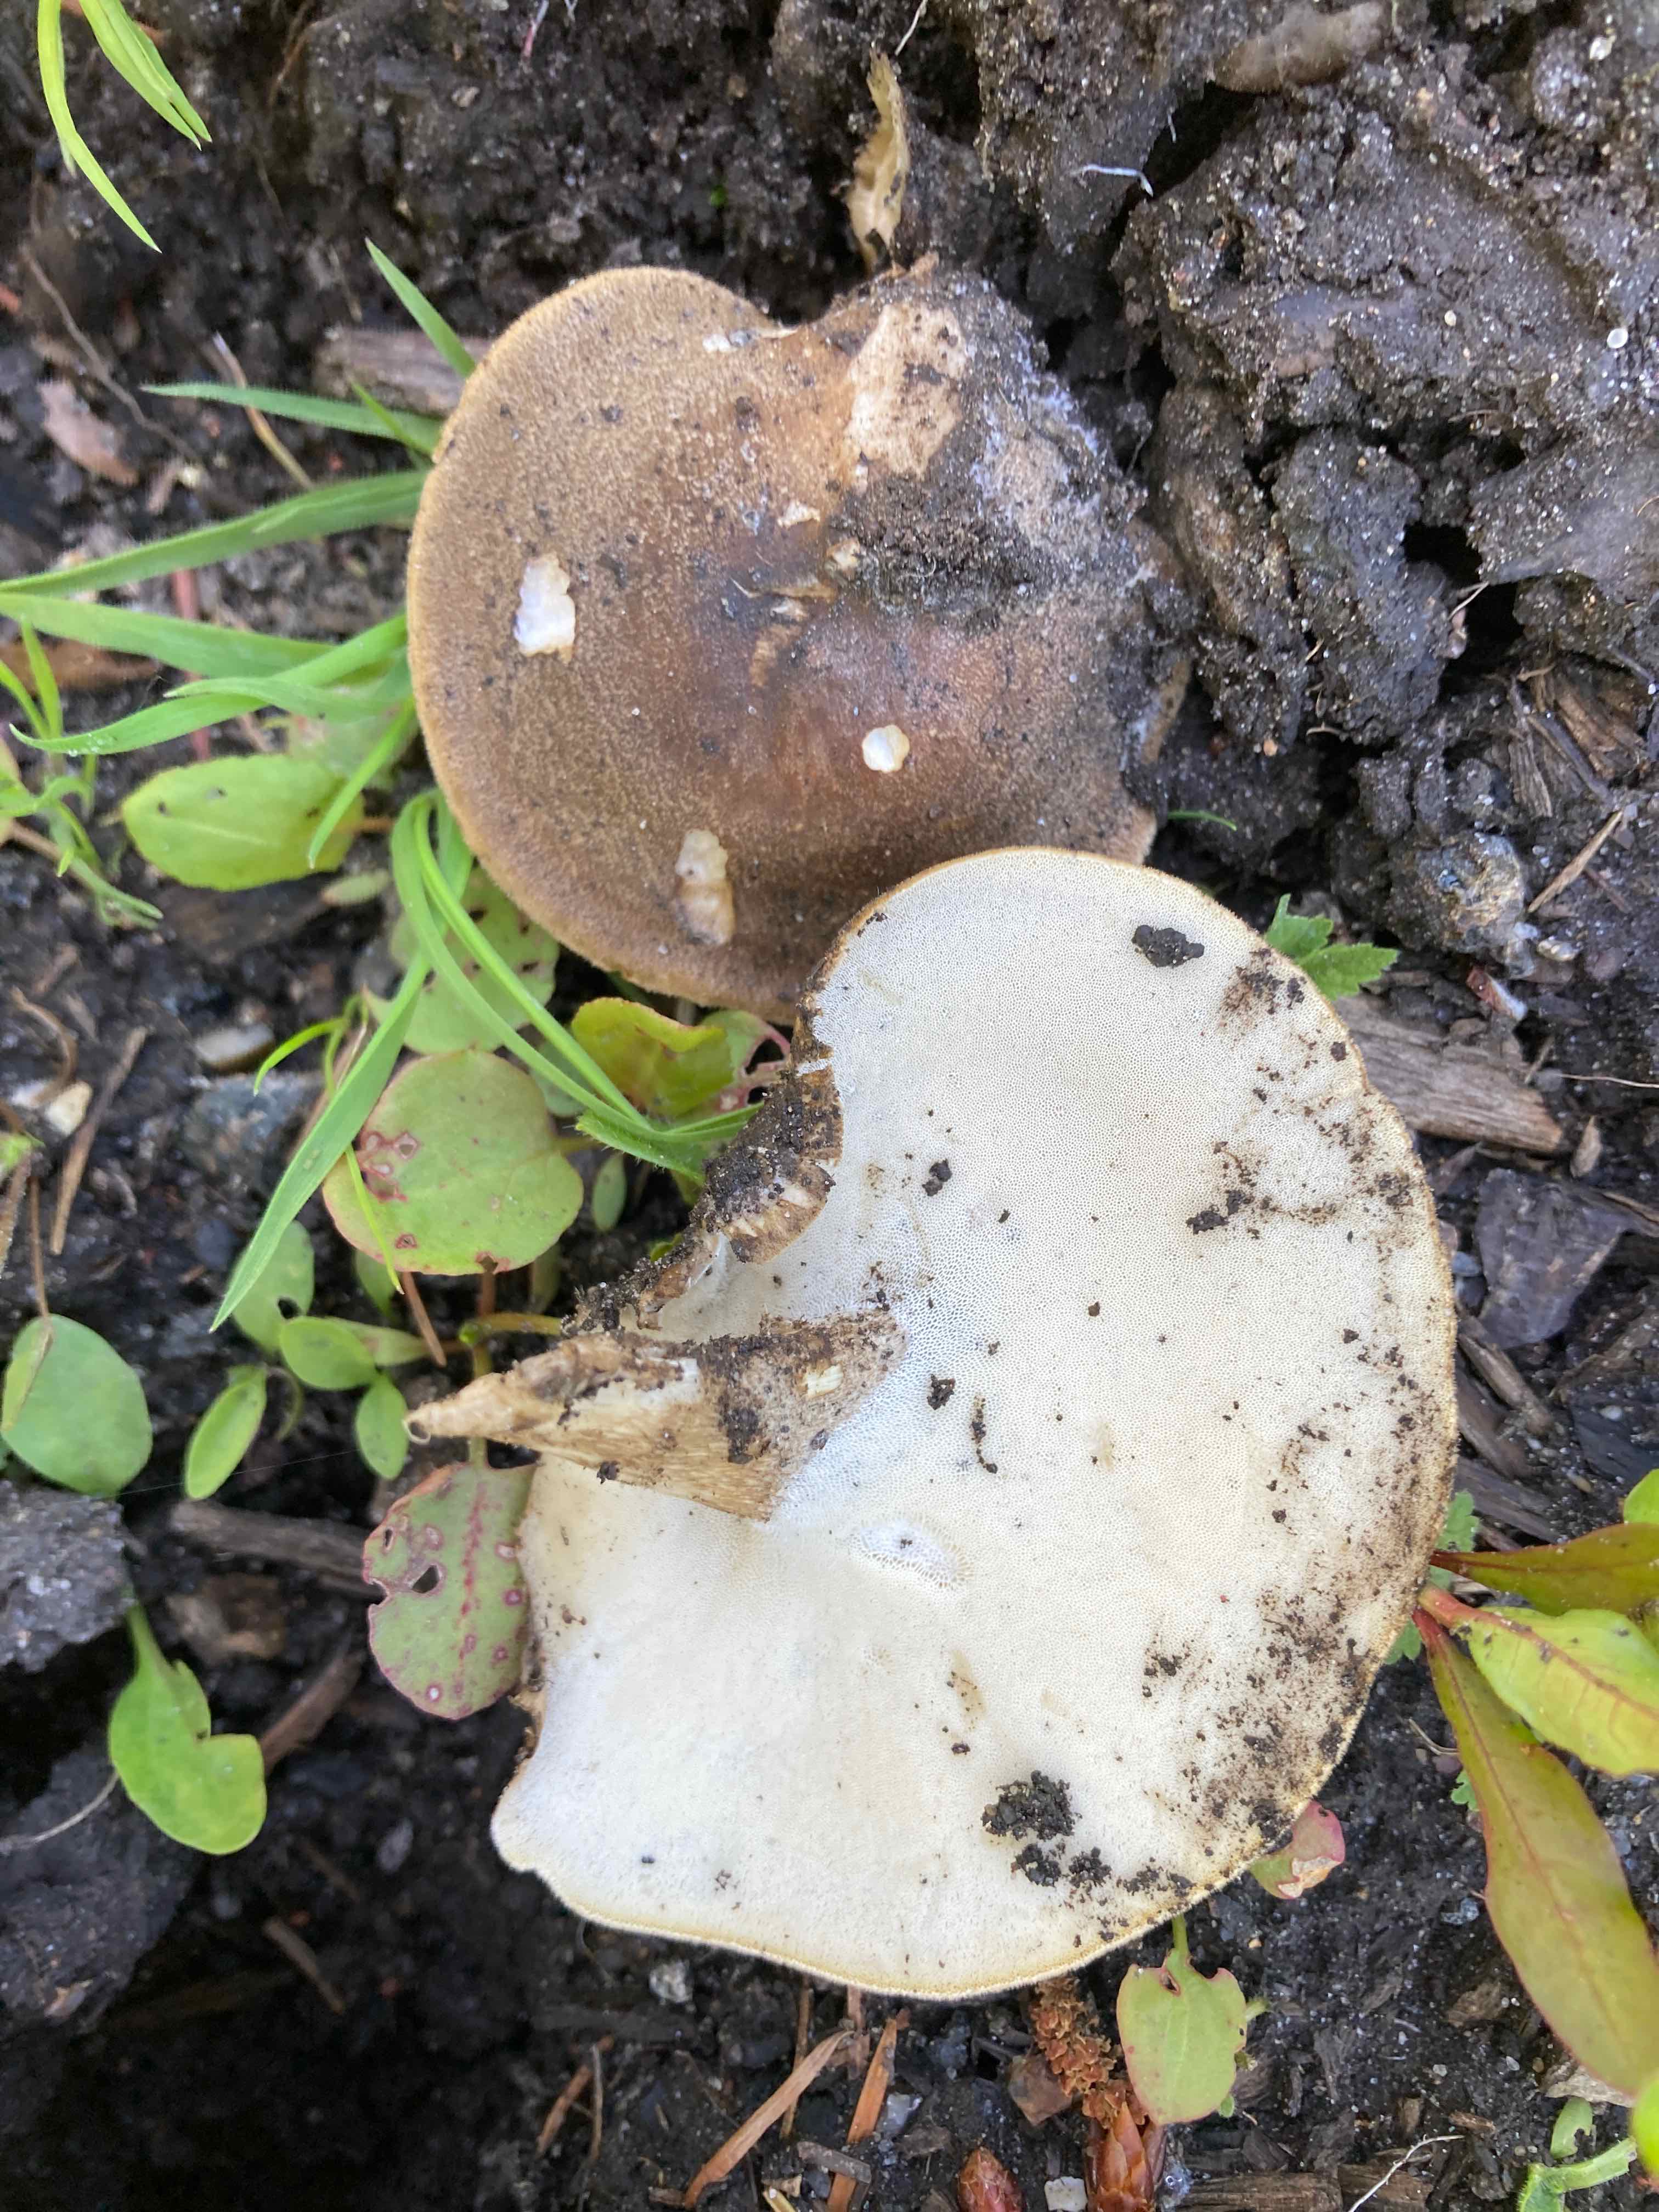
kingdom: Fungi
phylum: Basidiomycota
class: Agaricomycetes
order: Polyporales
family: Polyporaceae
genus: Lentinus
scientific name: Lentinus substrictus
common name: forårs-stilkporesvamp
